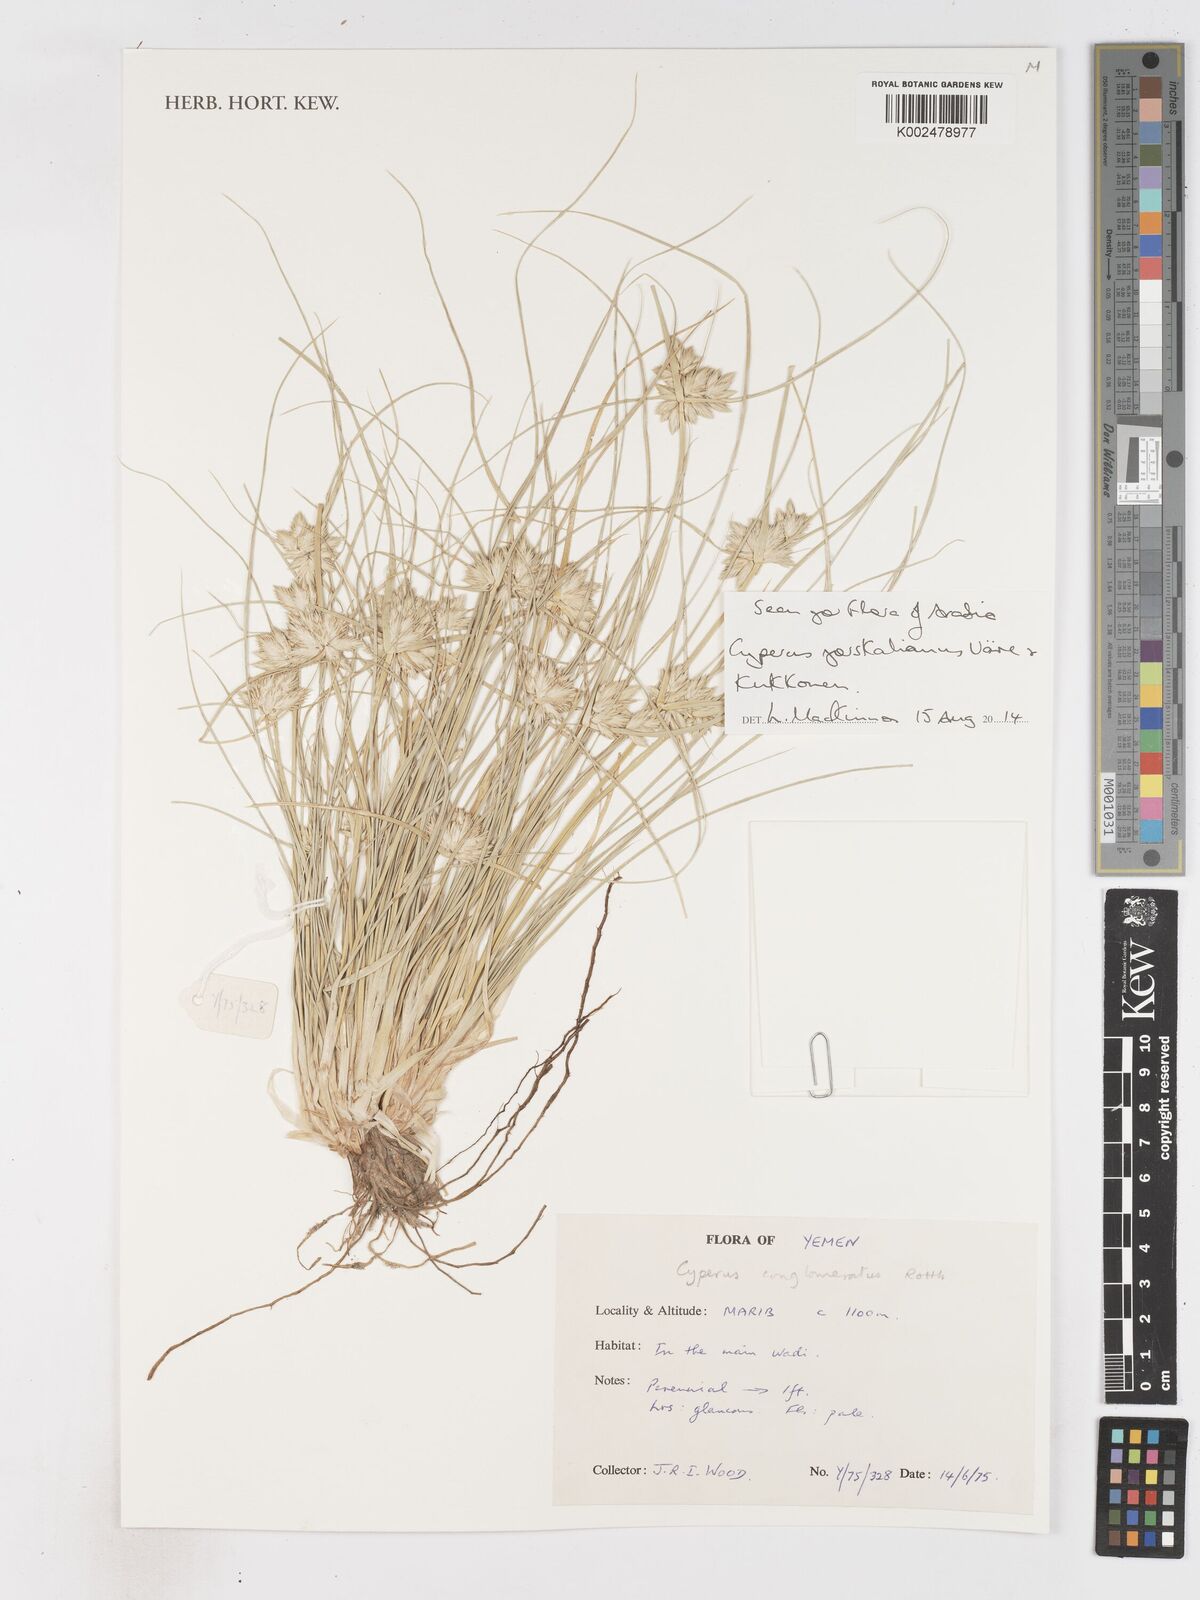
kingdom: Plantae
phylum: Tracheophyta
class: Liliopsida
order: Poales
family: Cyperaceae
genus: Cyperus
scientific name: Cyperus forskalianus
